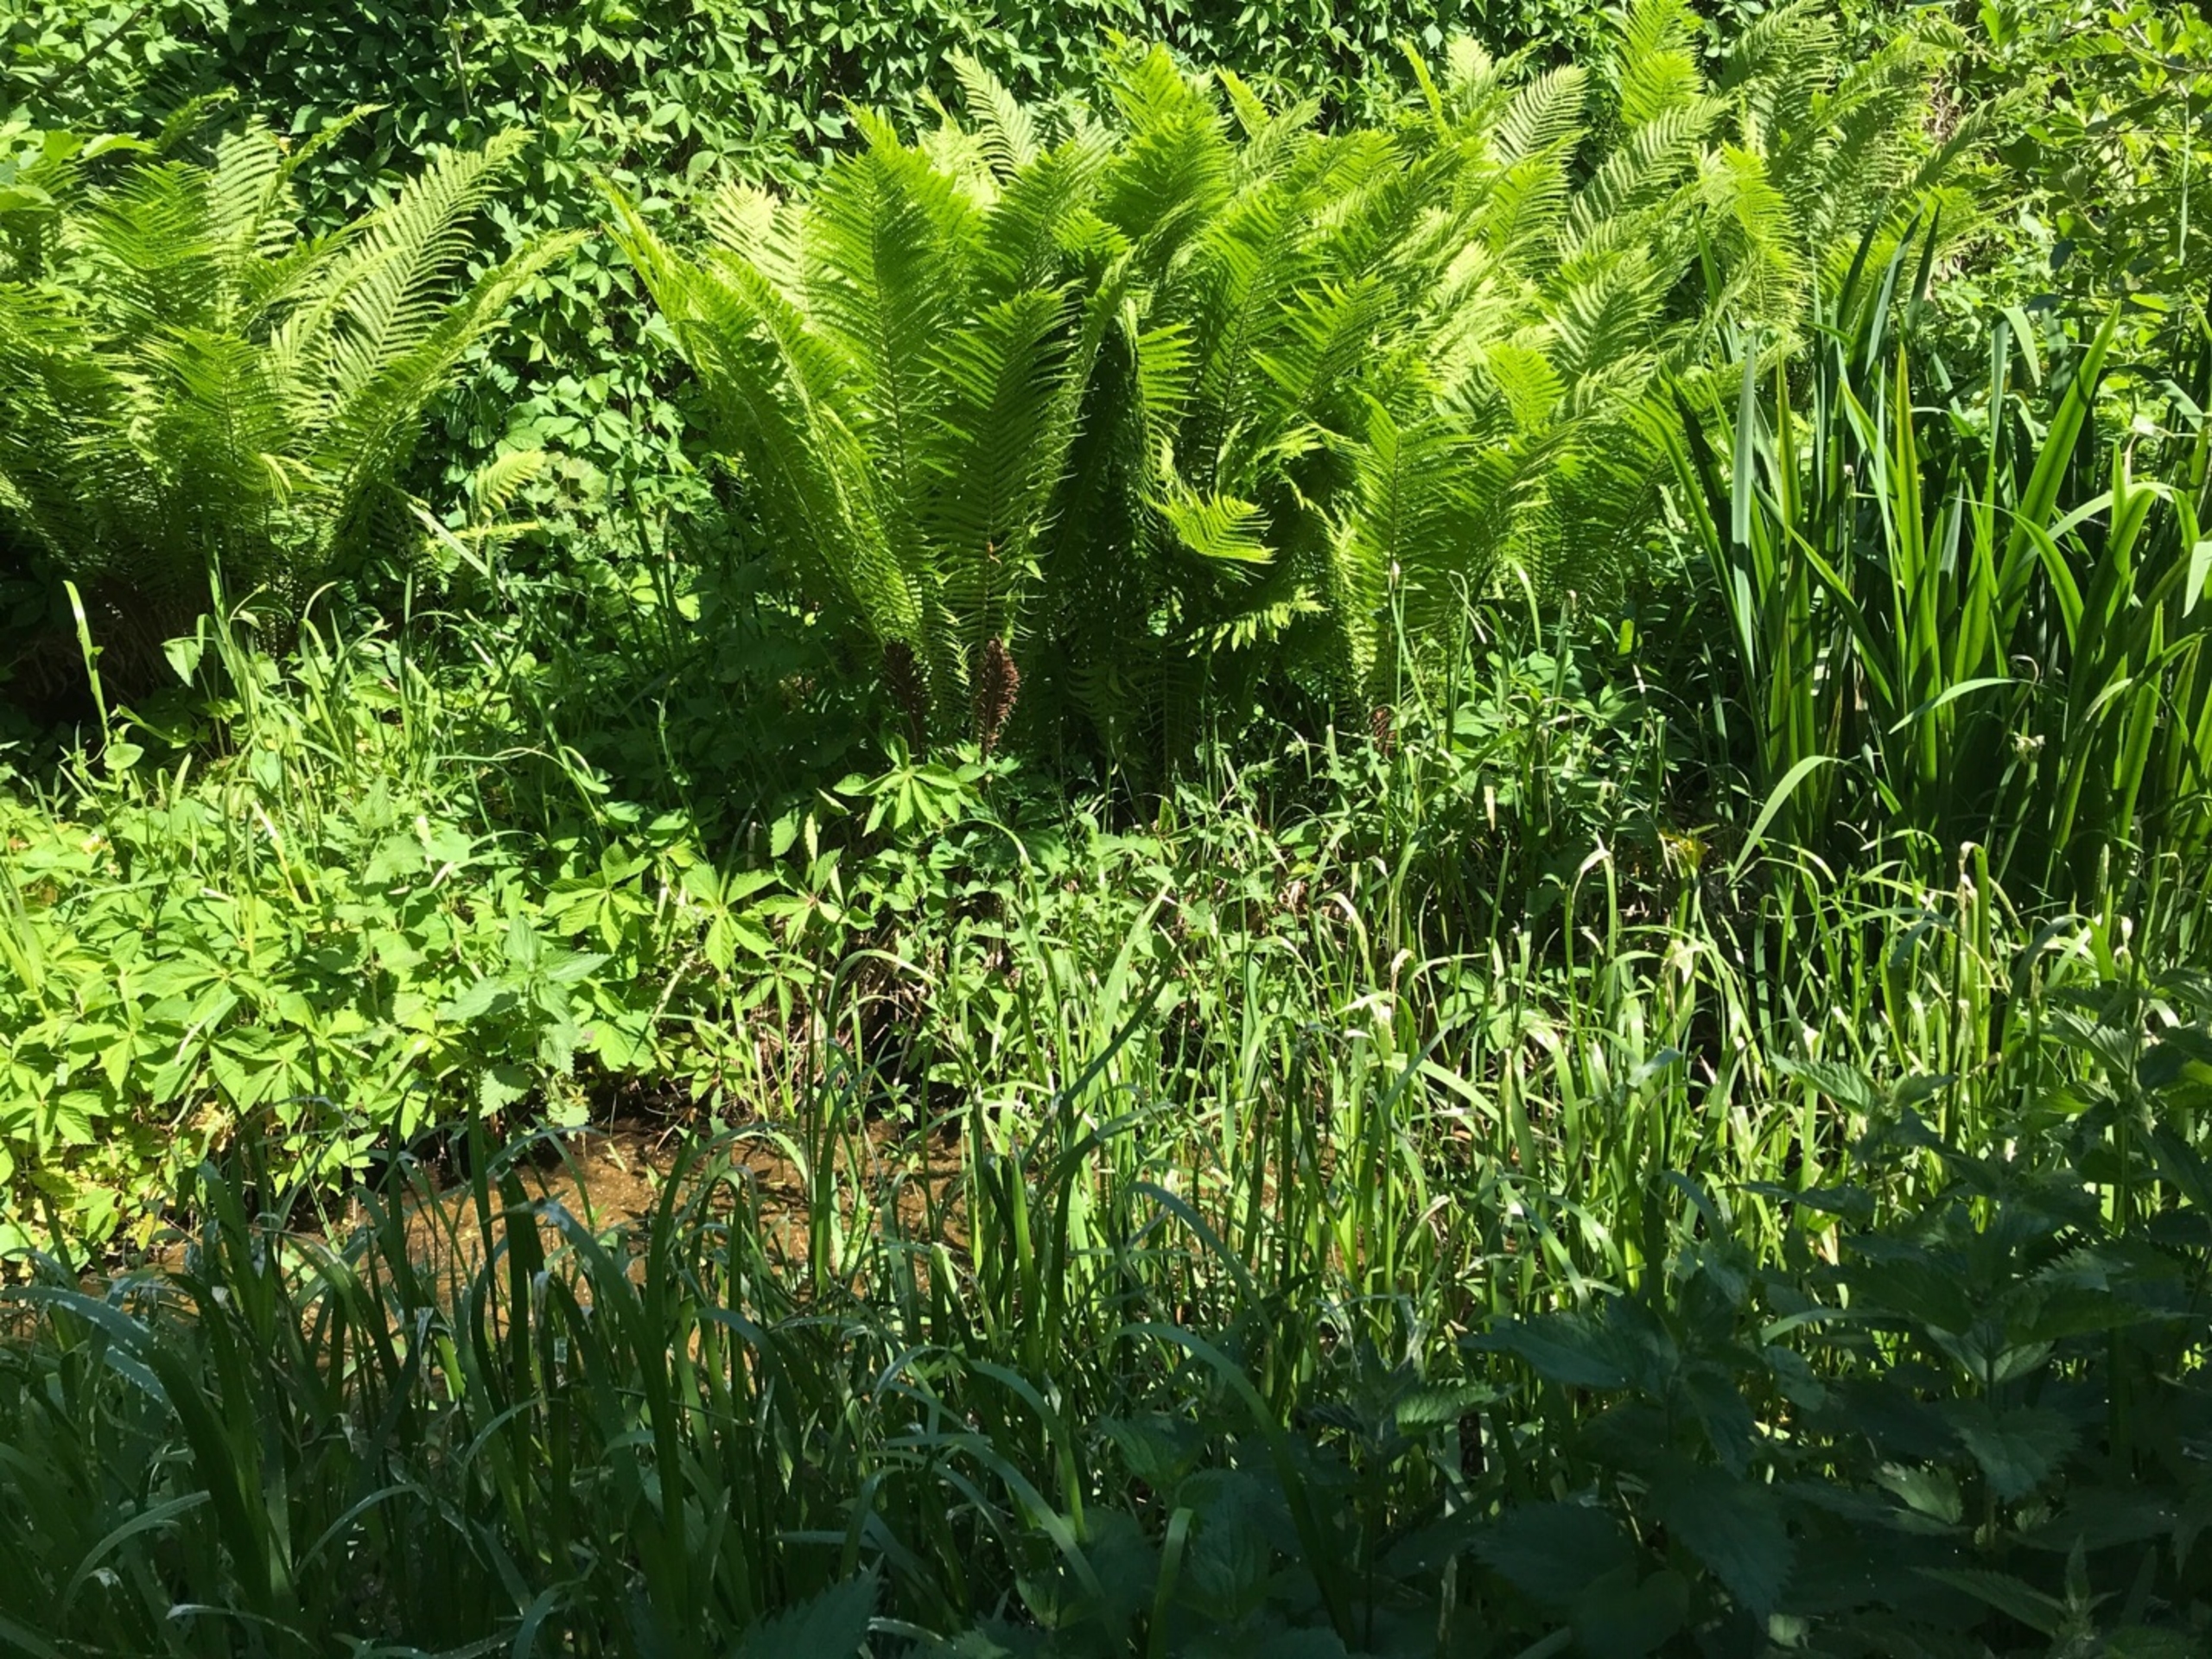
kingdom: Plantae
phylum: Tracheophyta
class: Polypodiopsida
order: Polypodiales
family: Onocleaceae
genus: Matteuccia
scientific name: Matteuccia struthiopteris
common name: Strudsvinge
